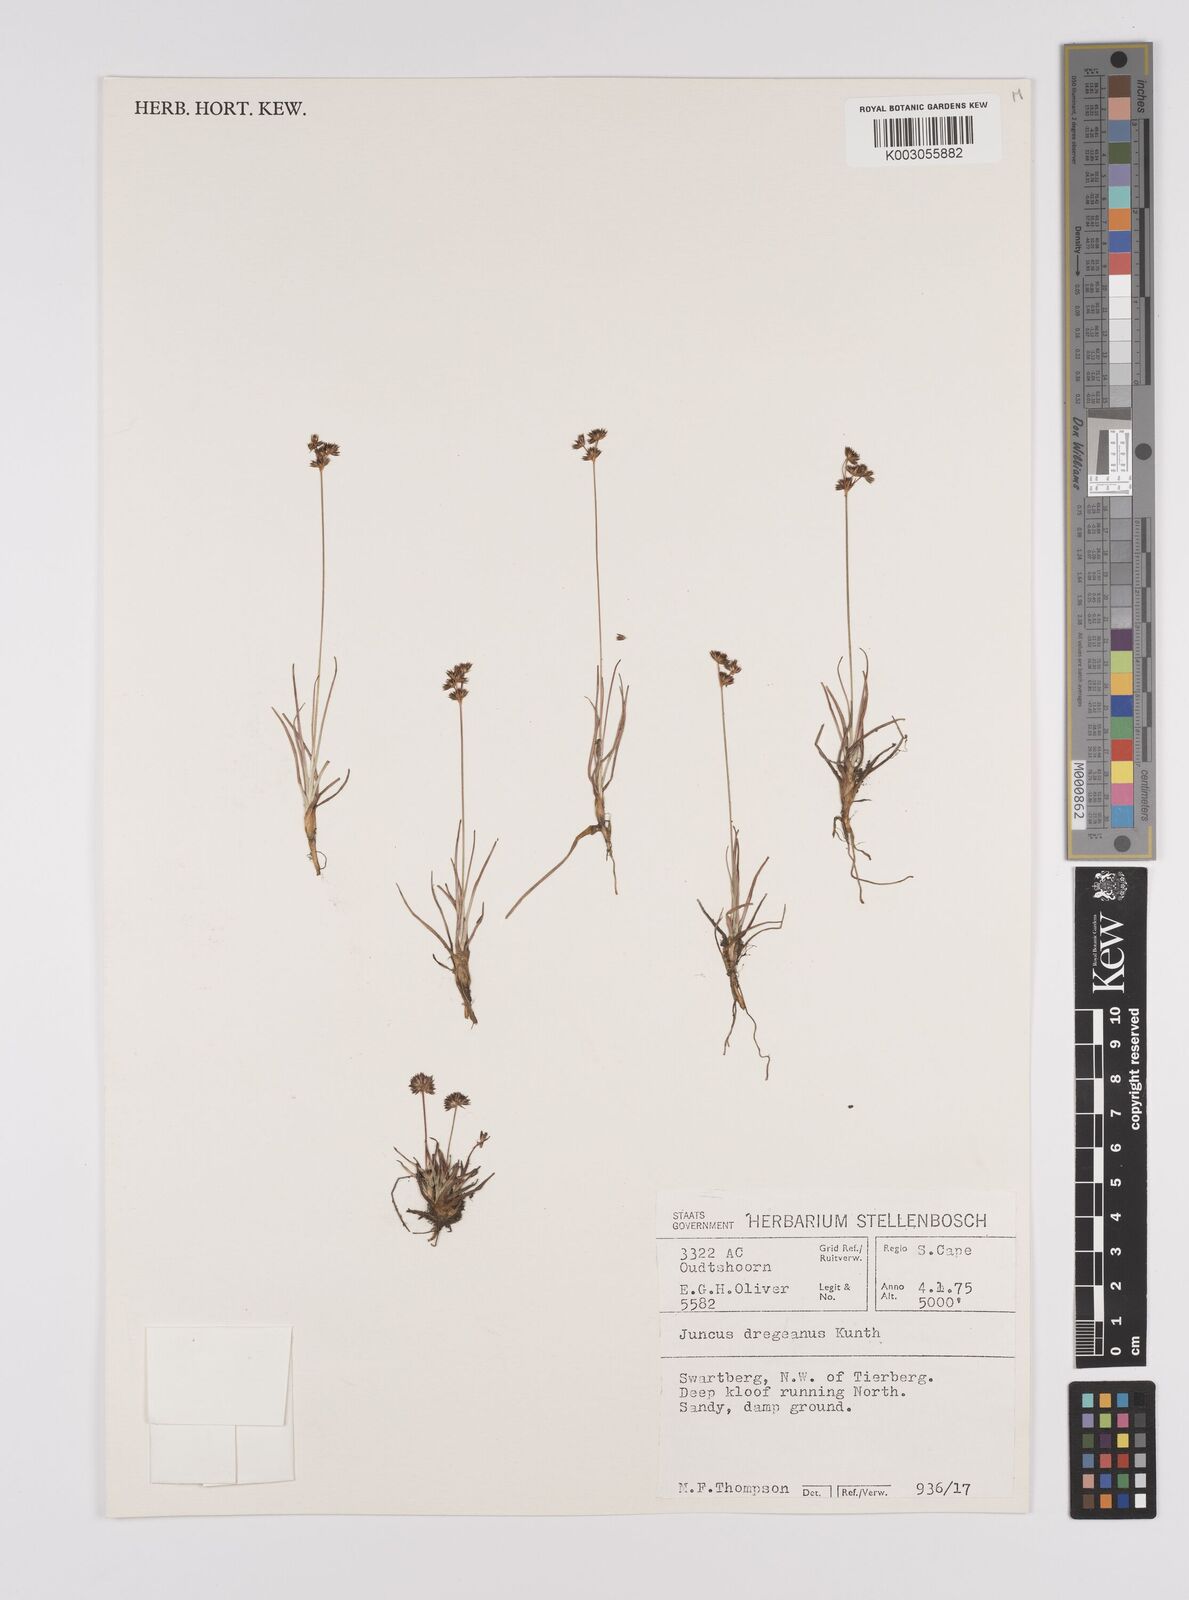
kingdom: Plantae
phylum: Tracheophyta
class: Liliopsida
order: Poales
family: Juncaceae
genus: Juncus
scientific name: Juncus dregeanus
